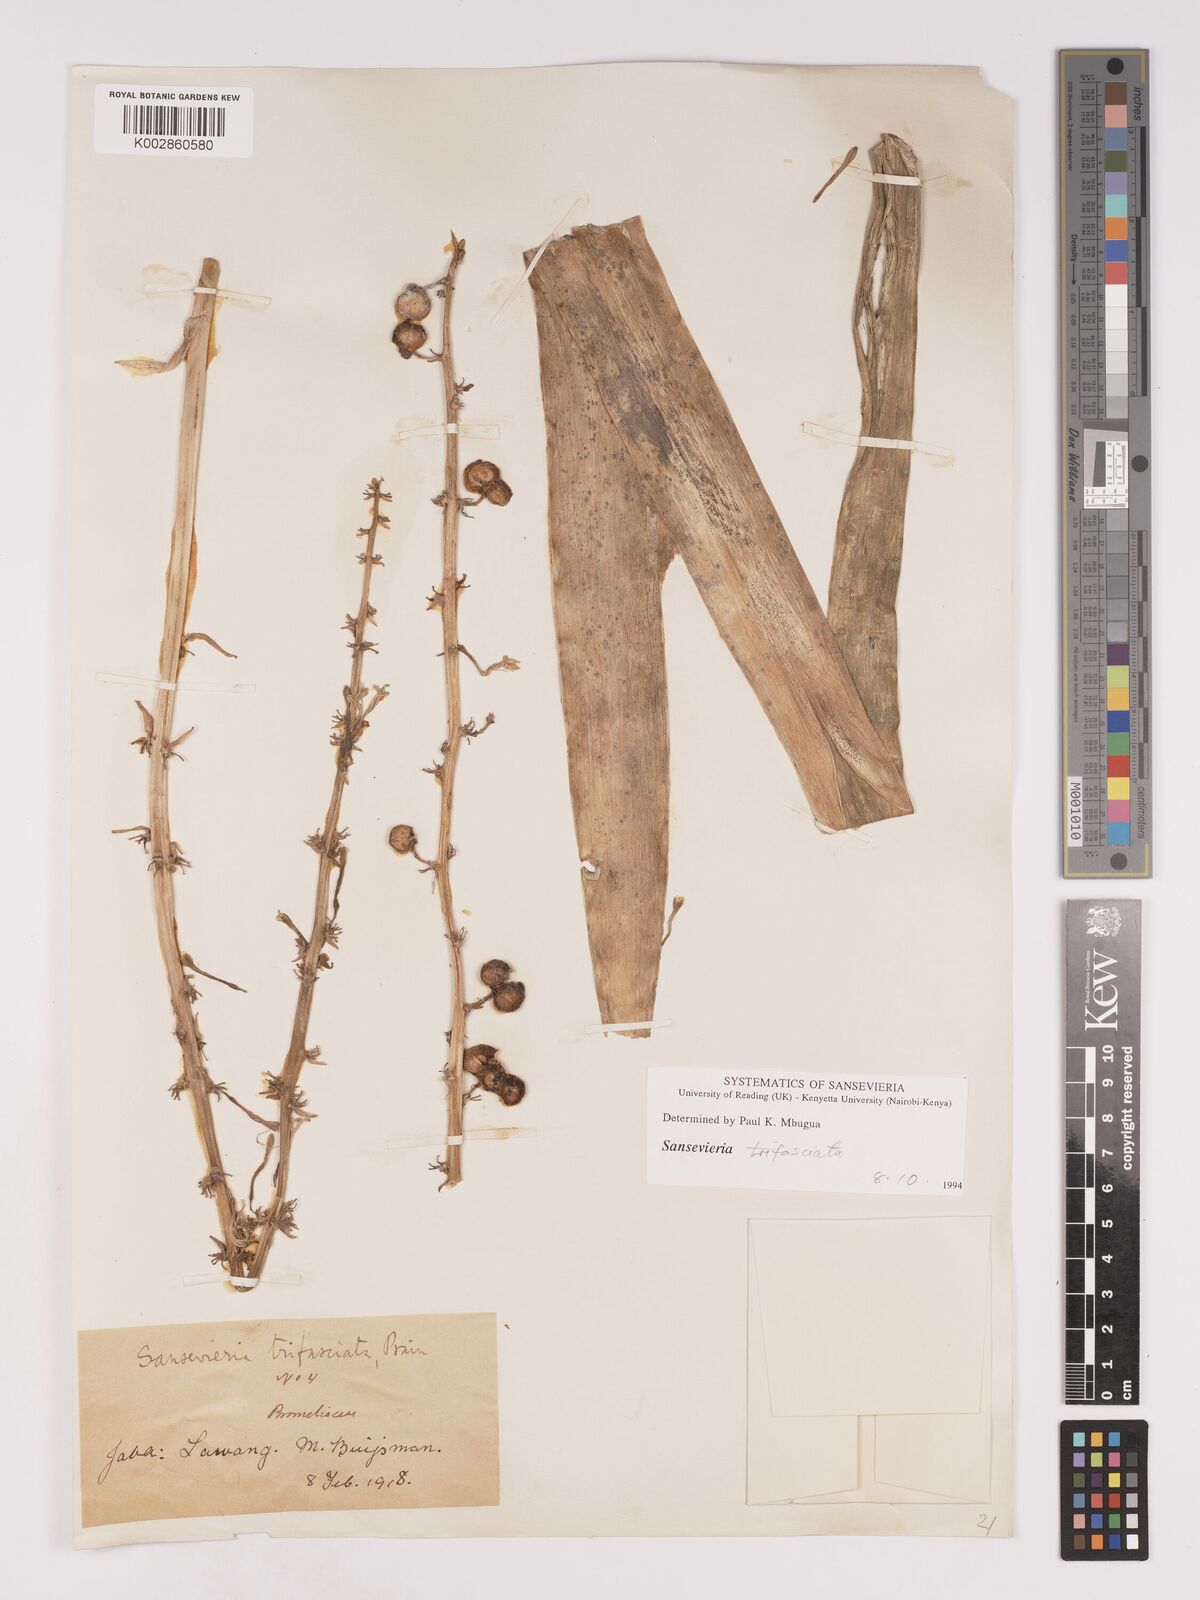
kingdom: Plantae
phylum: Tracheophyta
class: Liliopsida
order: Asparagales
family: Asparagaceae
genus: Dracaena
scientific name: Dracaena terniflora
